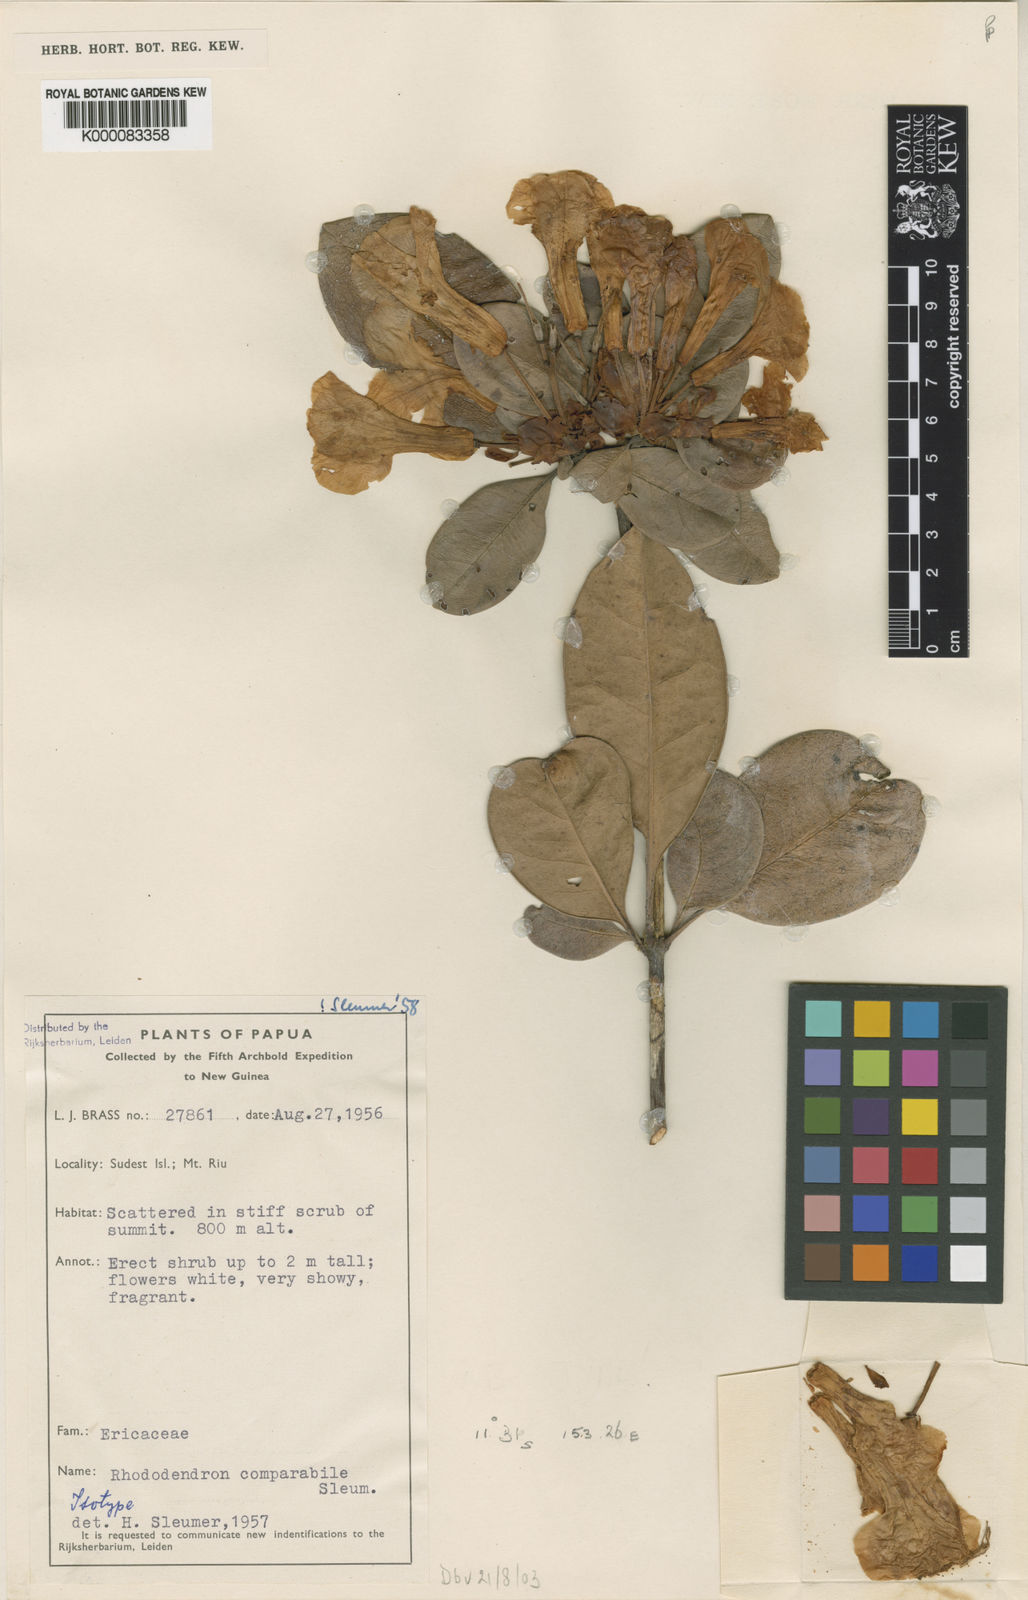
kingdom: Plantae
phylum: Tracheophyta
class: Magnoliopsida
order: Ericales
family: Ericaceae
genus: Rhododendron
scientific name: Rhododendron comparabile
